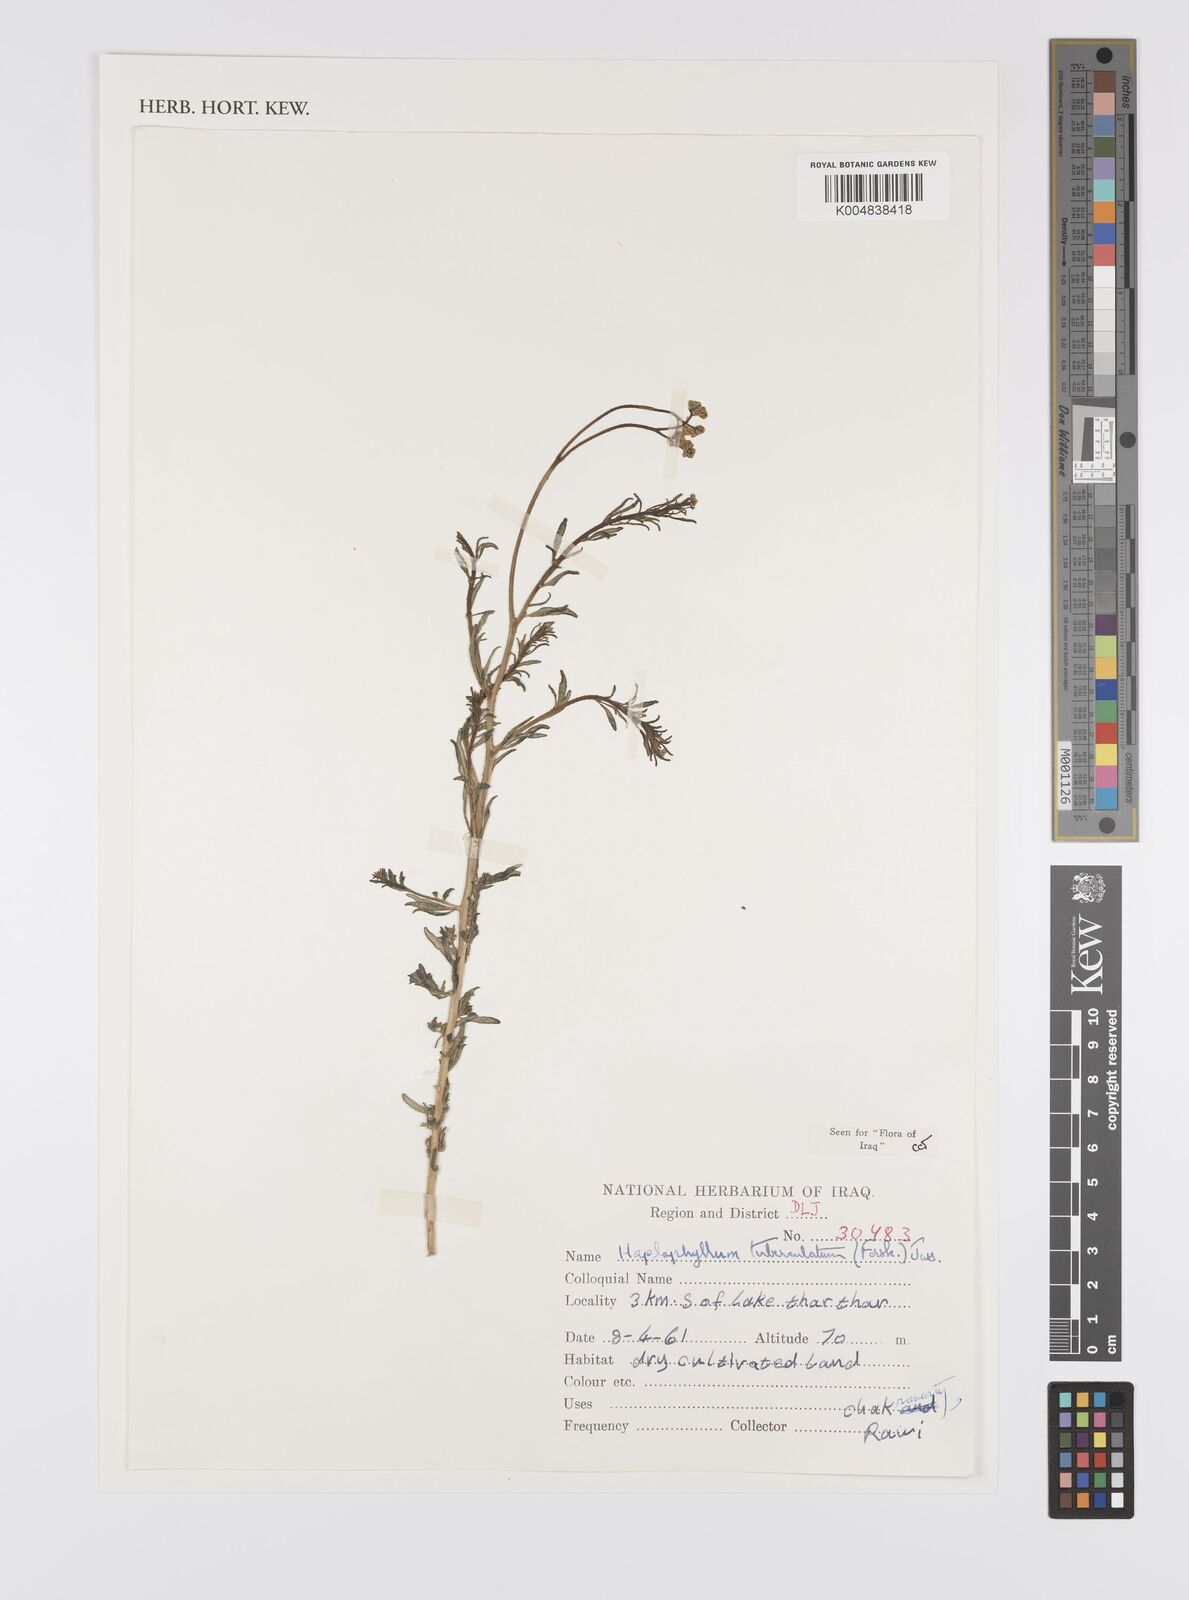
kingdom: Plantae
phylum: Tracheophyta
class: Magnoliopsida
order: Sapindales
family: Rutaceae
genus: Haplophyllum
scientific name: Haplophyllum tuberculatum
